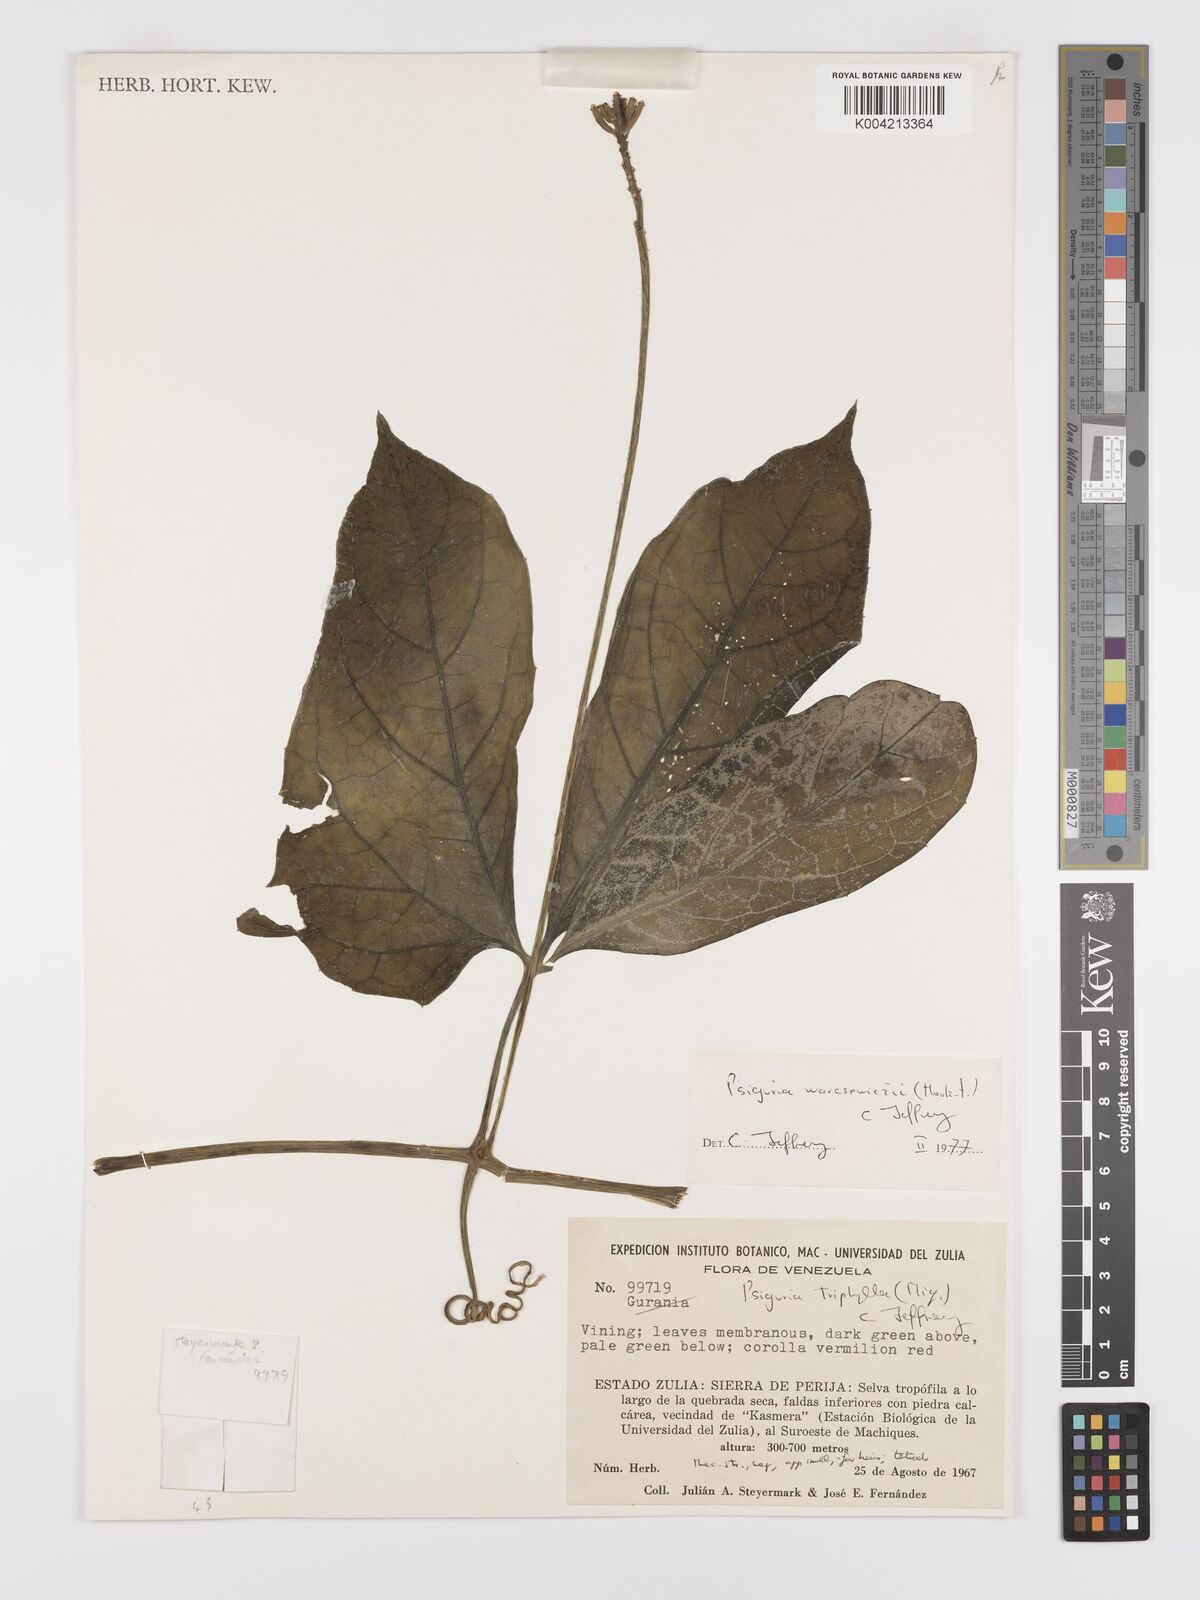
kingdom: Plantae
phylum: Tracheophyta
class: Magnoliopsida
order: Cucurbitales
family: Cucurbitaceae
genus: Psiguria
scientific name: Psiguria warscewiczii
